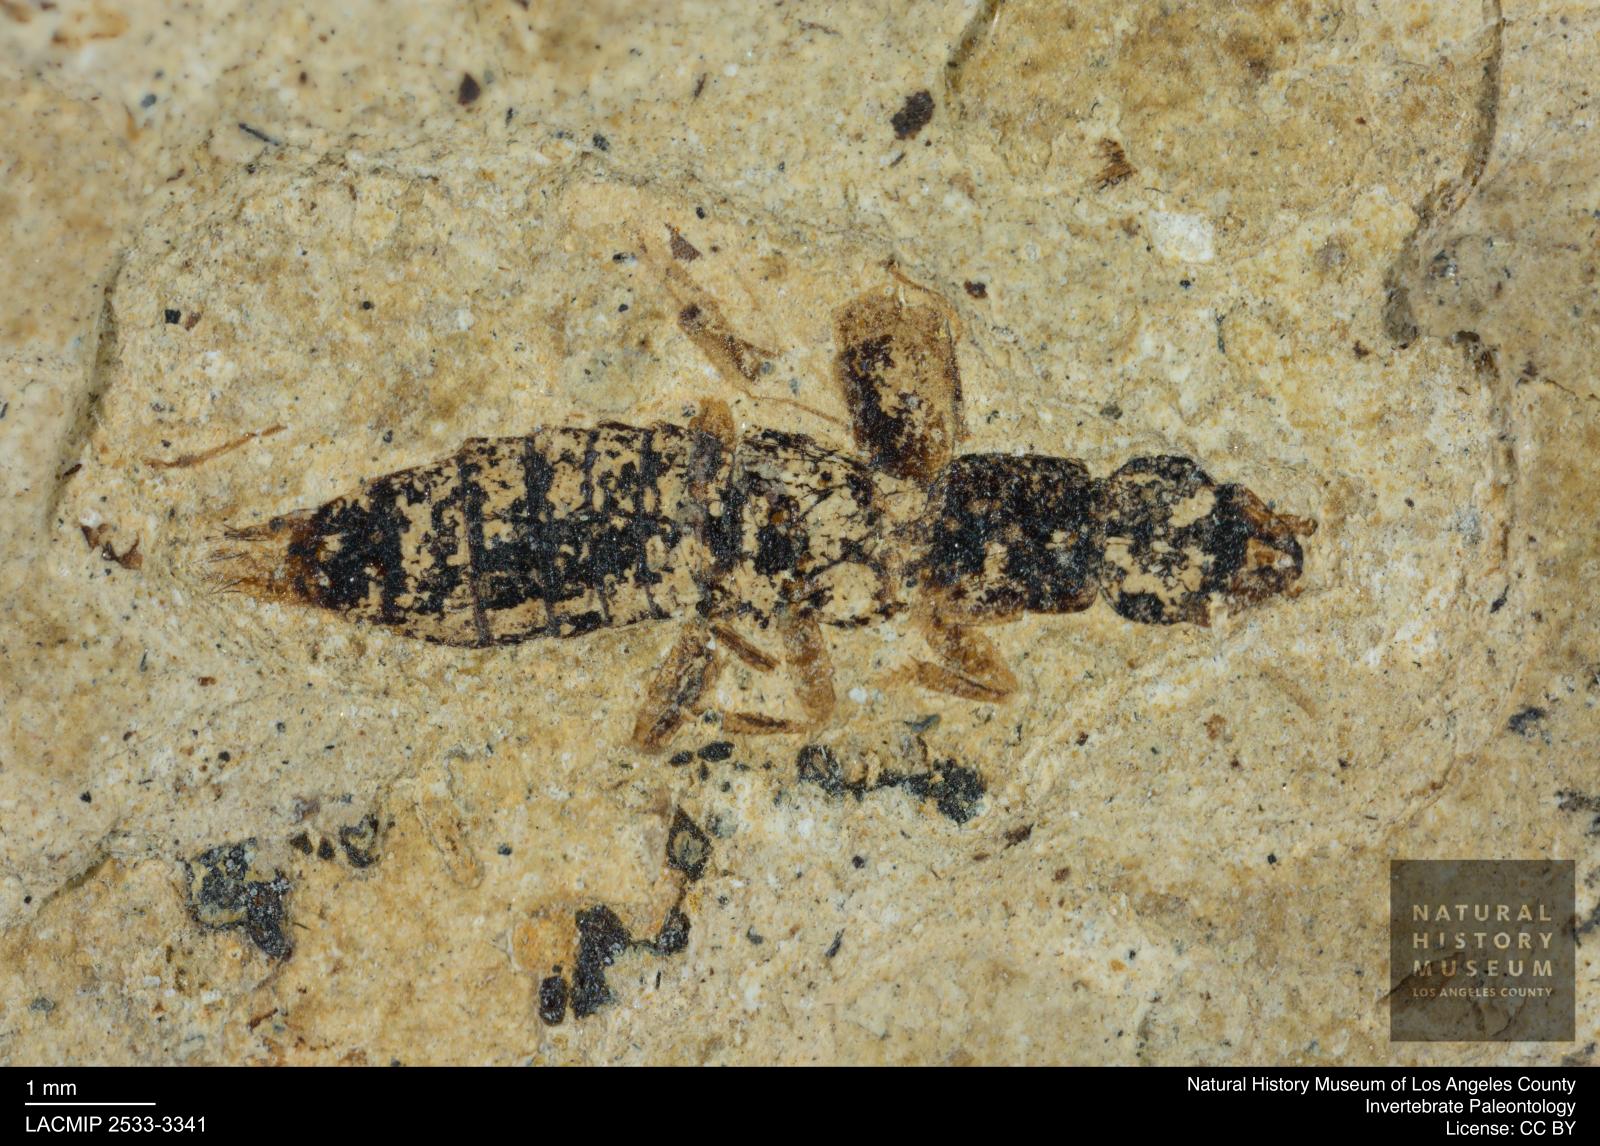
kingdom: Animalia
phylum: Arthropoda
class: Insecta
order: Coleoptera
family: Staphylinidae
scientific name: Staphylinidae
